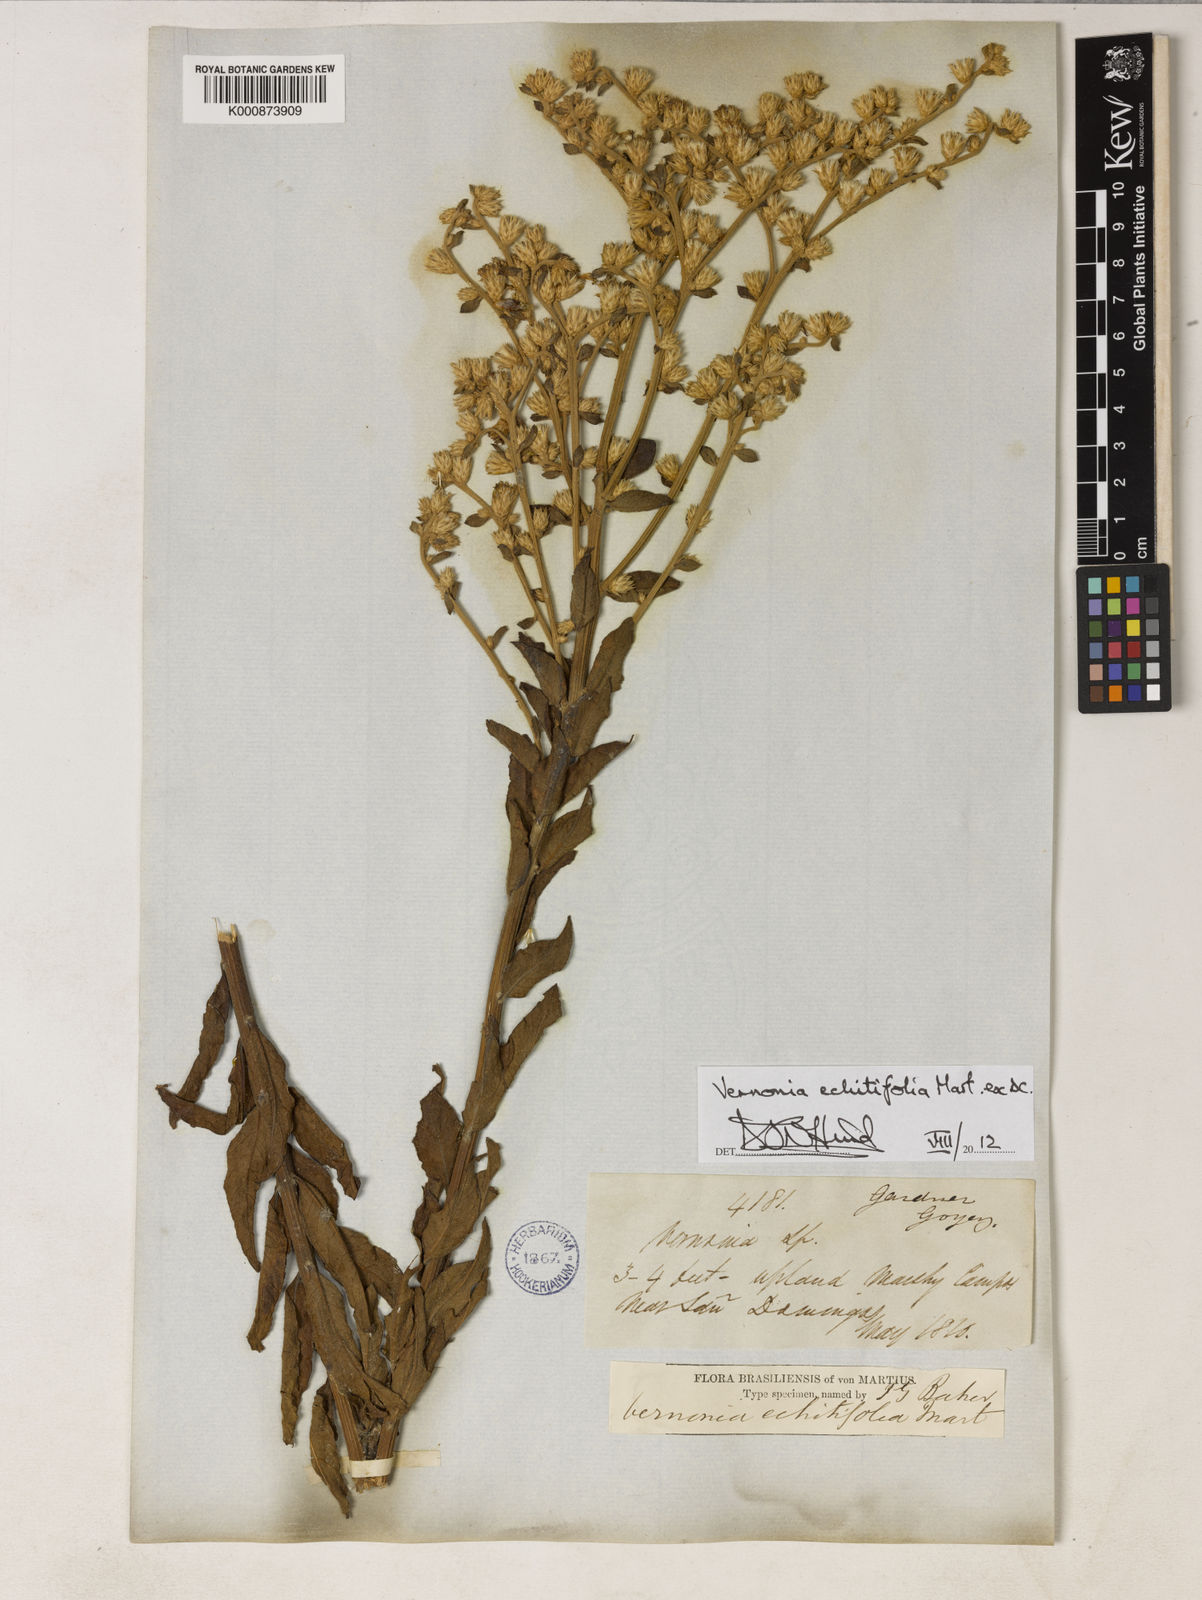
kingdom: Plantae
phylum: Tracheophyta
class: Magnoliopsida
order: Asterales
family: Asteraceae
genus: Acilepidopsis
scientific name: Acilepidopsis echitifolia
